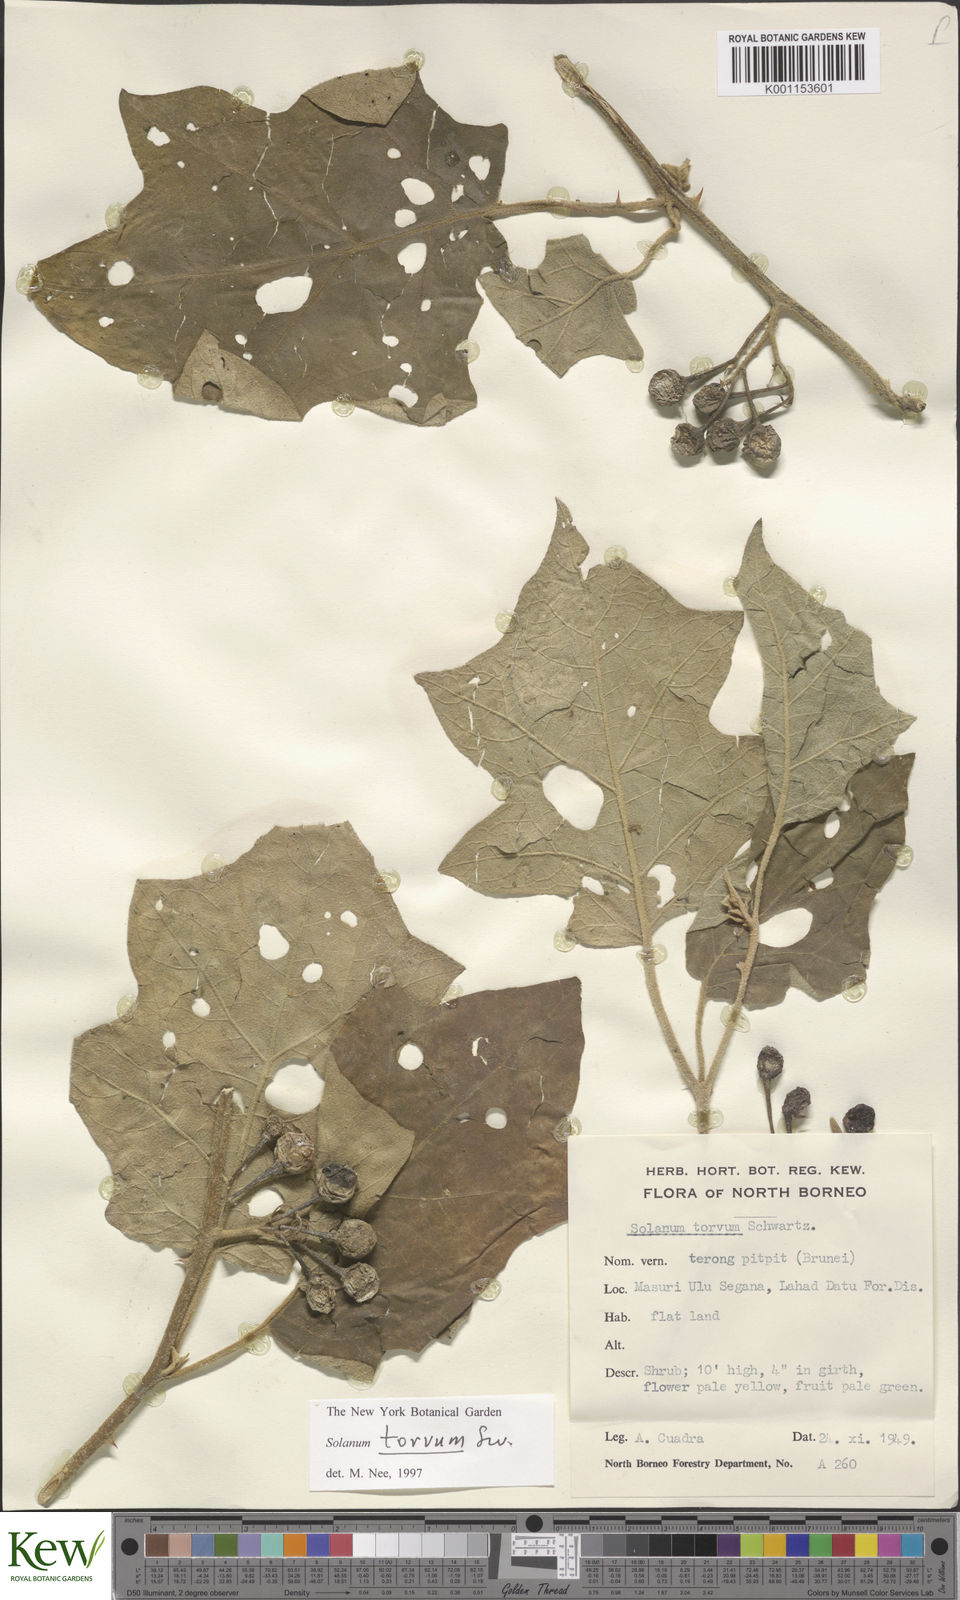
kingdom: Plantae
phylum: Tracheophyta
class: Magnoliopsida
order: Solanales
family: Solanaceae
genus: Solanum
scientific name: Solanum torvum
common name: Turkey berry
